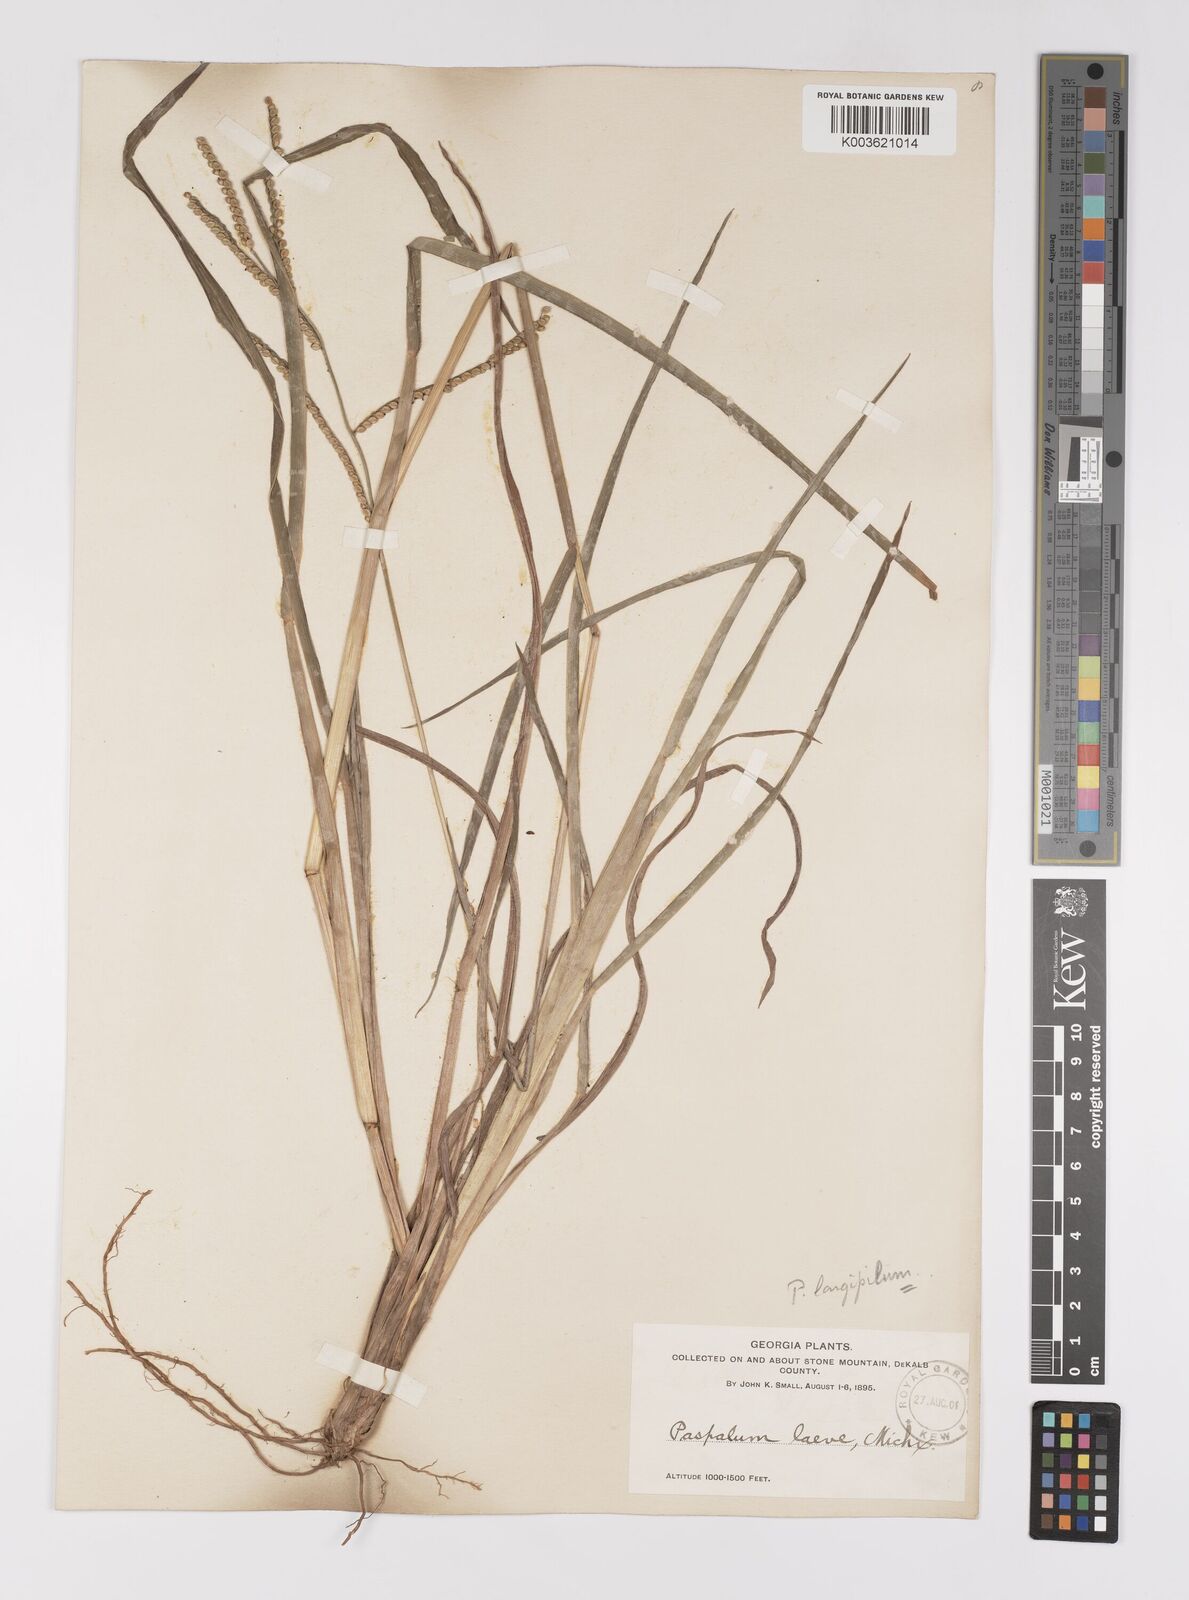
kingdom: Plantae
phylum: Tracheophyta
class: Liliopsida
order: Poales
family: Poaceae
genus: Paspalum
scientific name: Paspalum laeve
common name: Field paspalum
